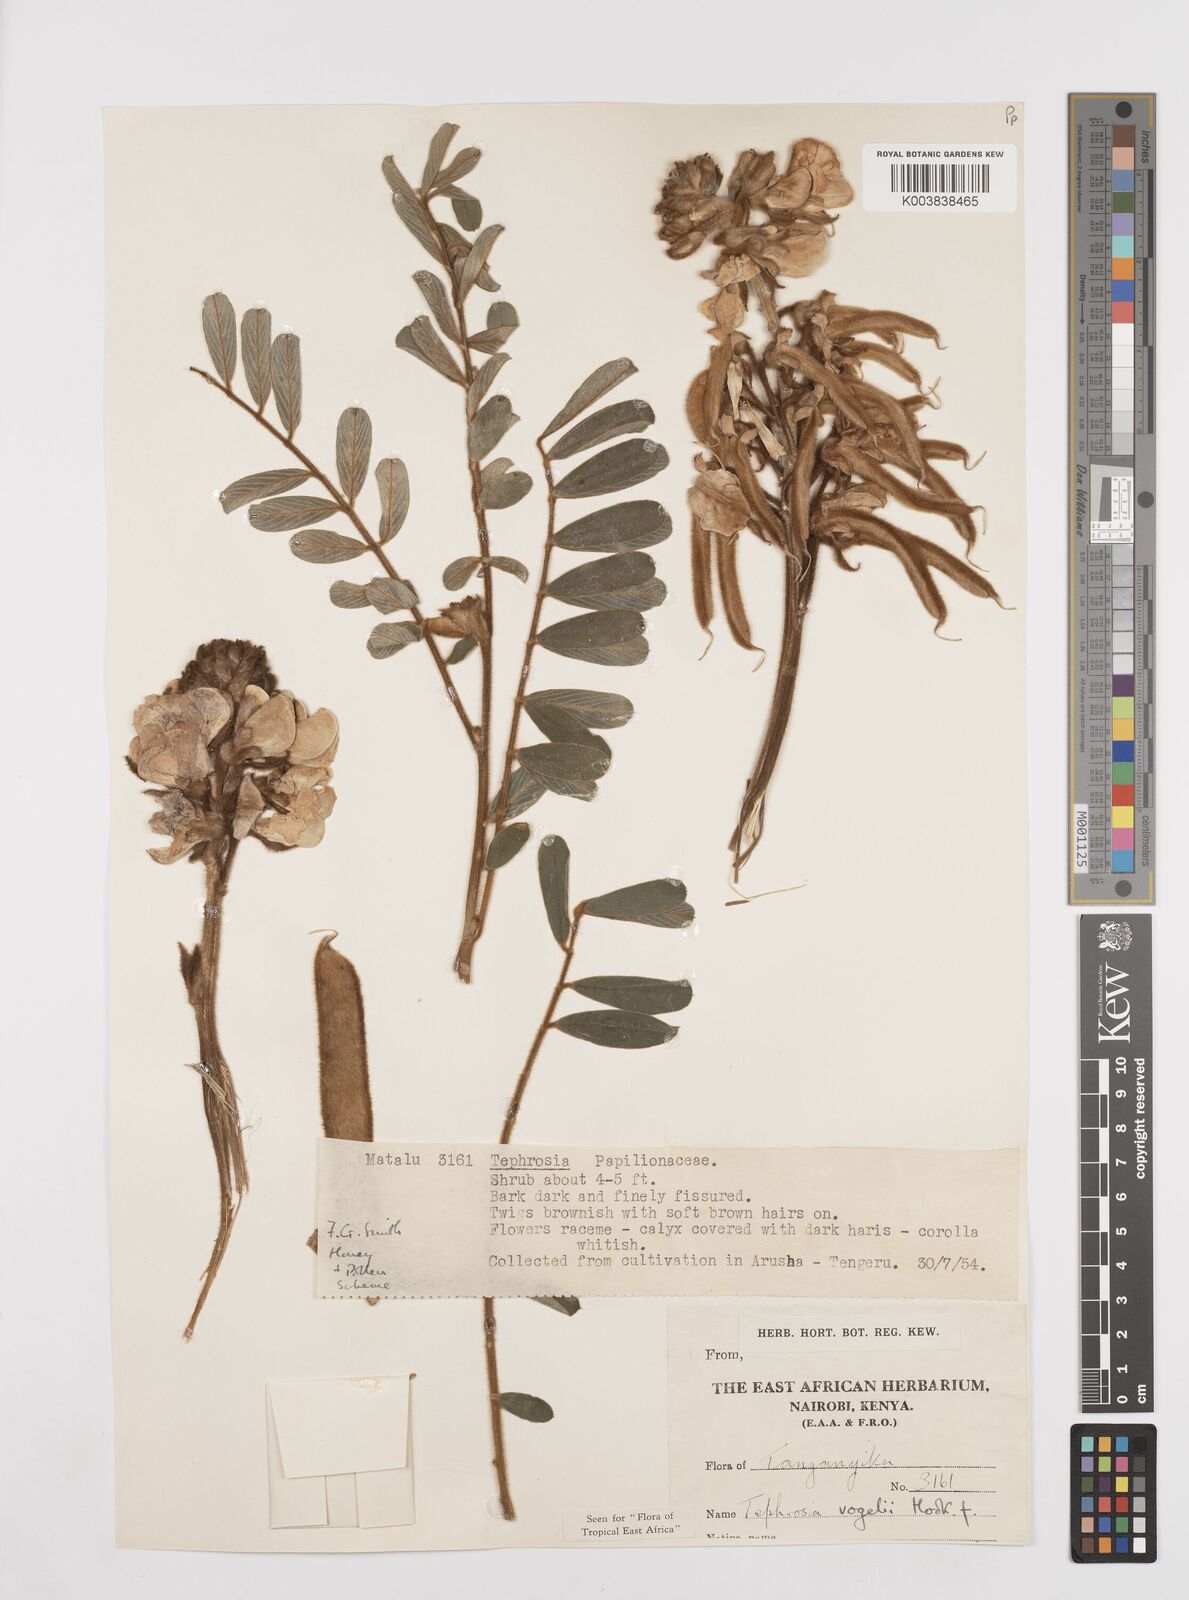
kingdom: Plantae
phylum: Tracheophyta
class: Magnoliopsida
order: Fabales
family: Fabaceae
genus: Tephrosia
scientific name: Tephrosia vogelii
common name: Vogel tephrosia
